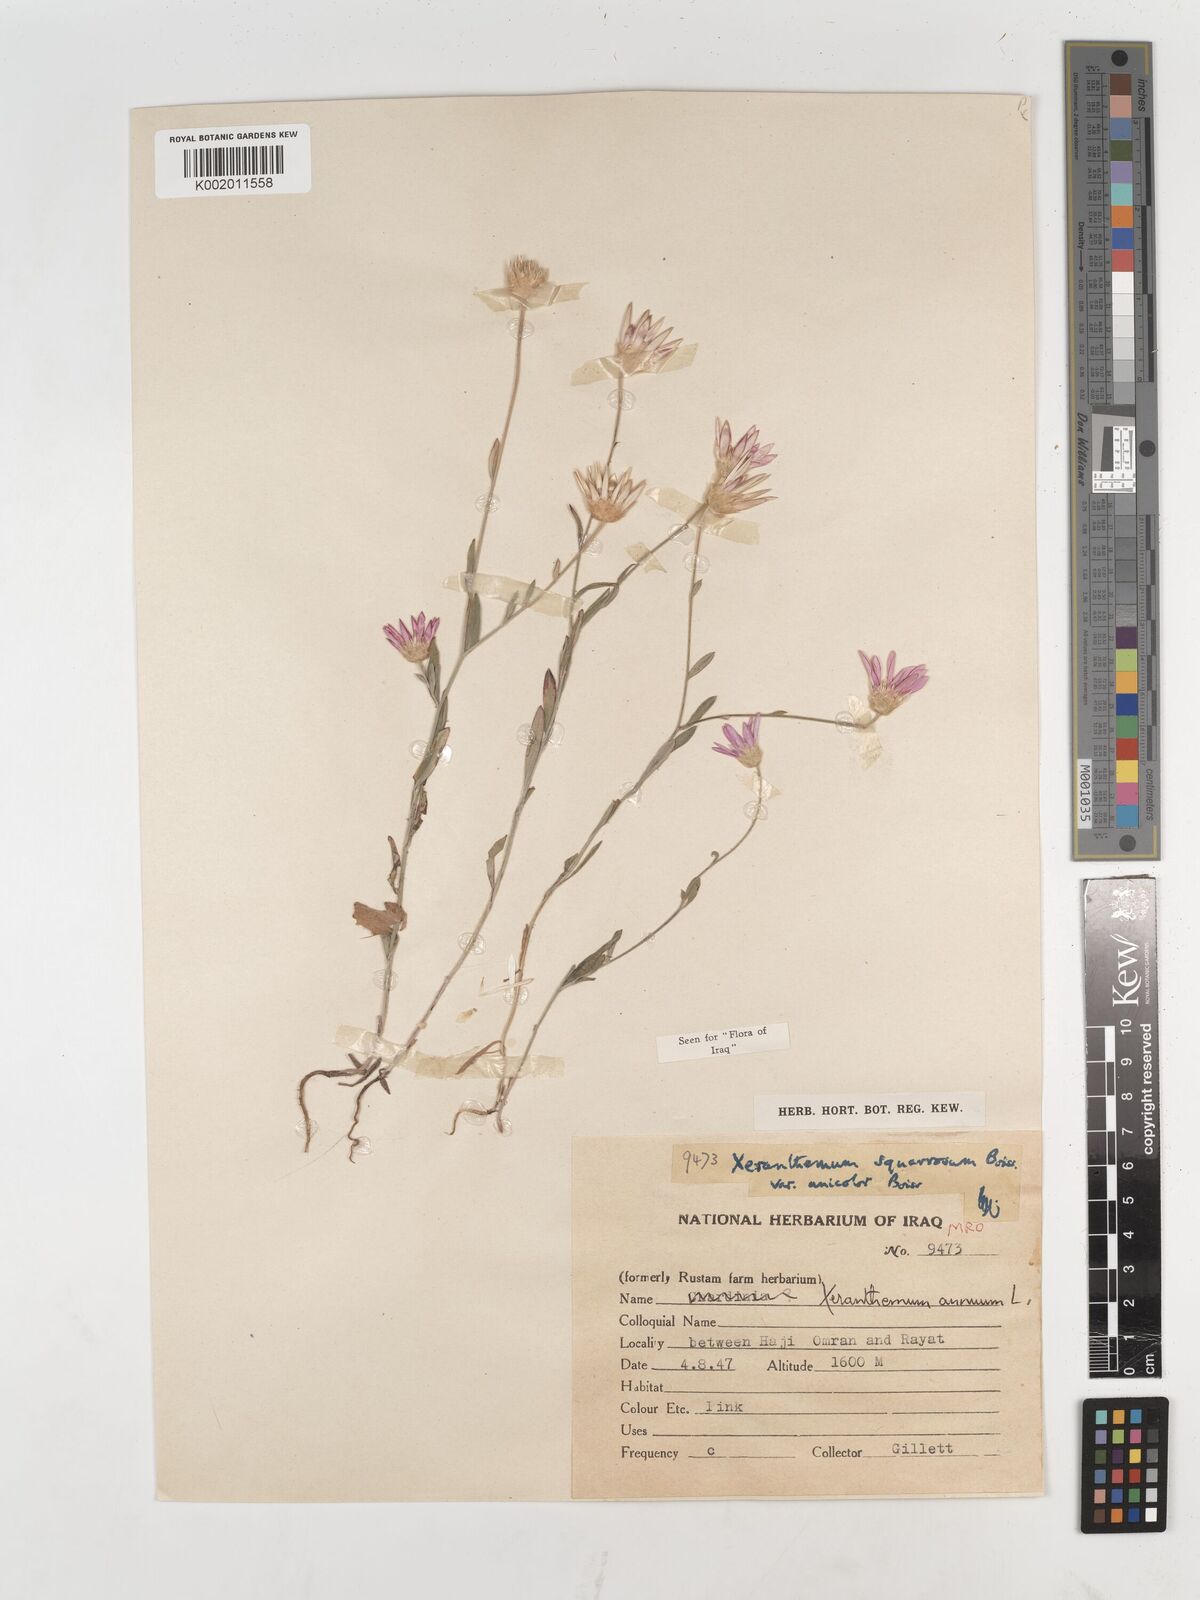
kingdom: Plantae
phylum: Tracheophyta
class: Magnoliopsida
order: Asterales
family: Asteraceae
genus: Xeranthemum
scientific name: Xeranthemum annuum
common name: Immortelle
